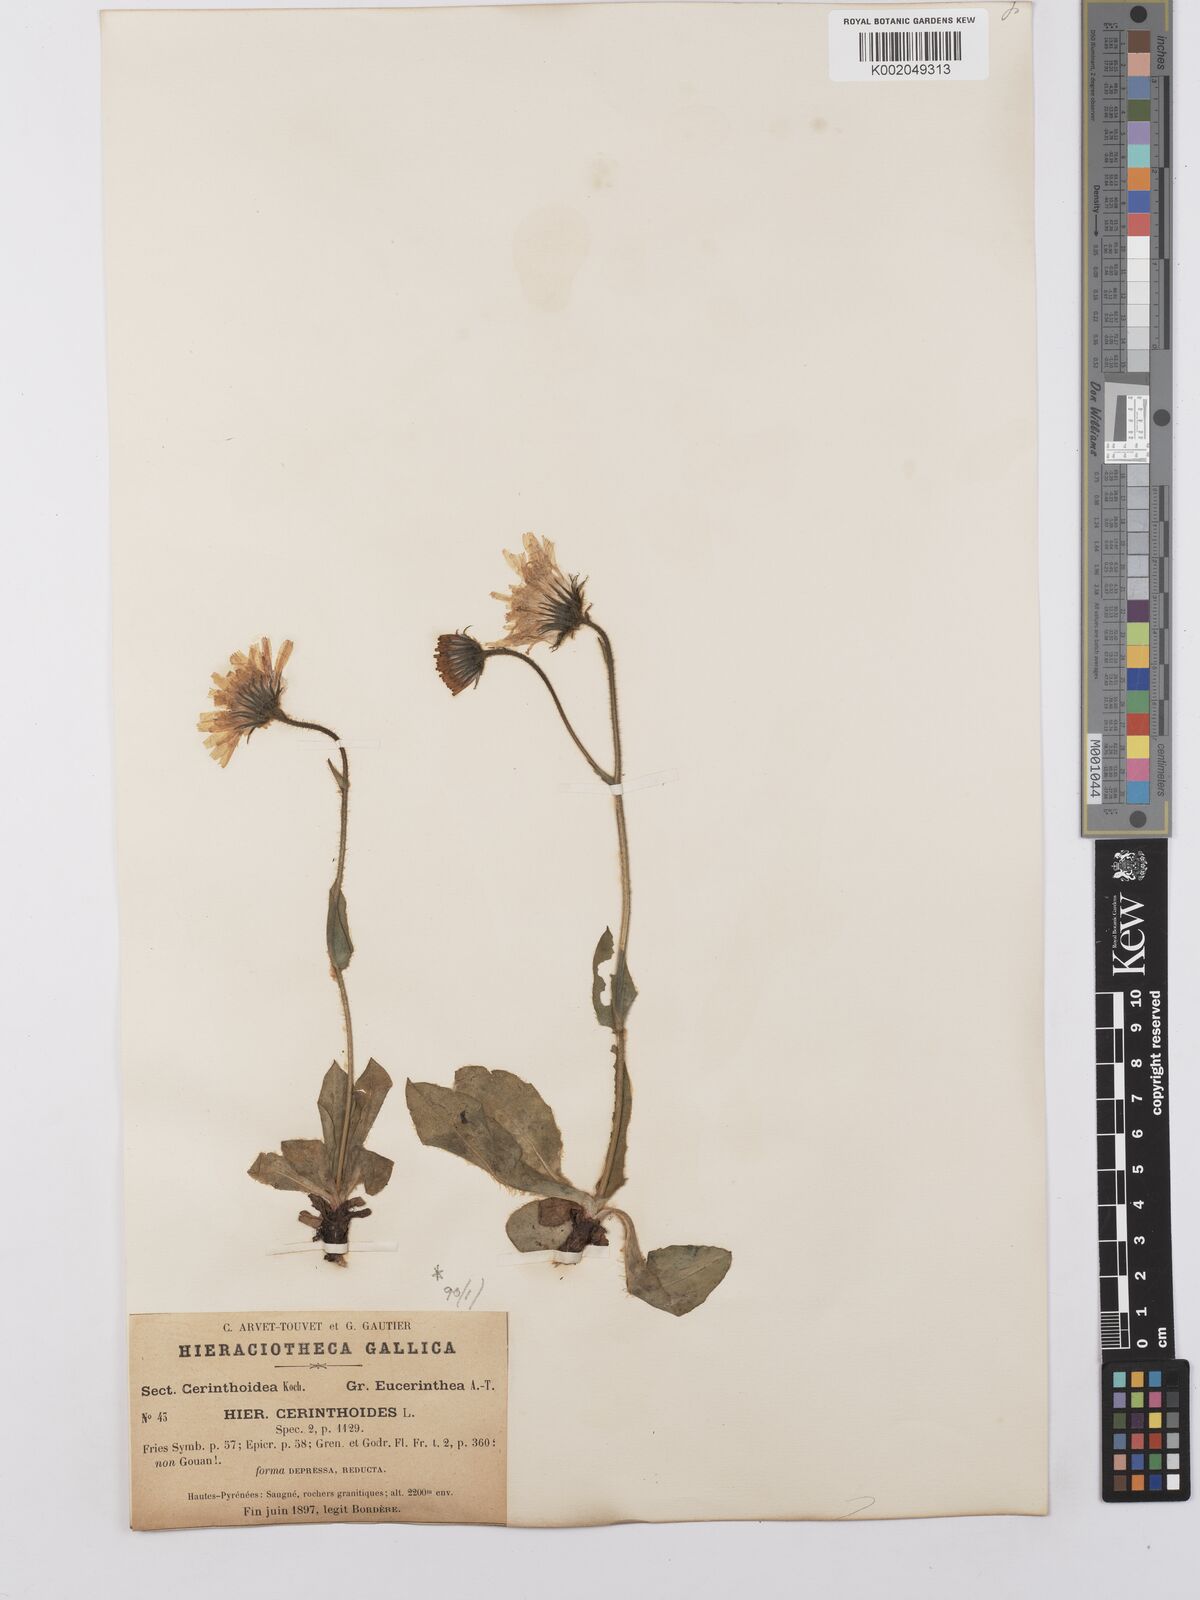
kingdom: Plantae
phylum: Tracheophyta
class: Magnoliopsida
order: Asterales
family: Asteraceae
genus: Hieracium
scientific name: Hieracium cerinthoides
